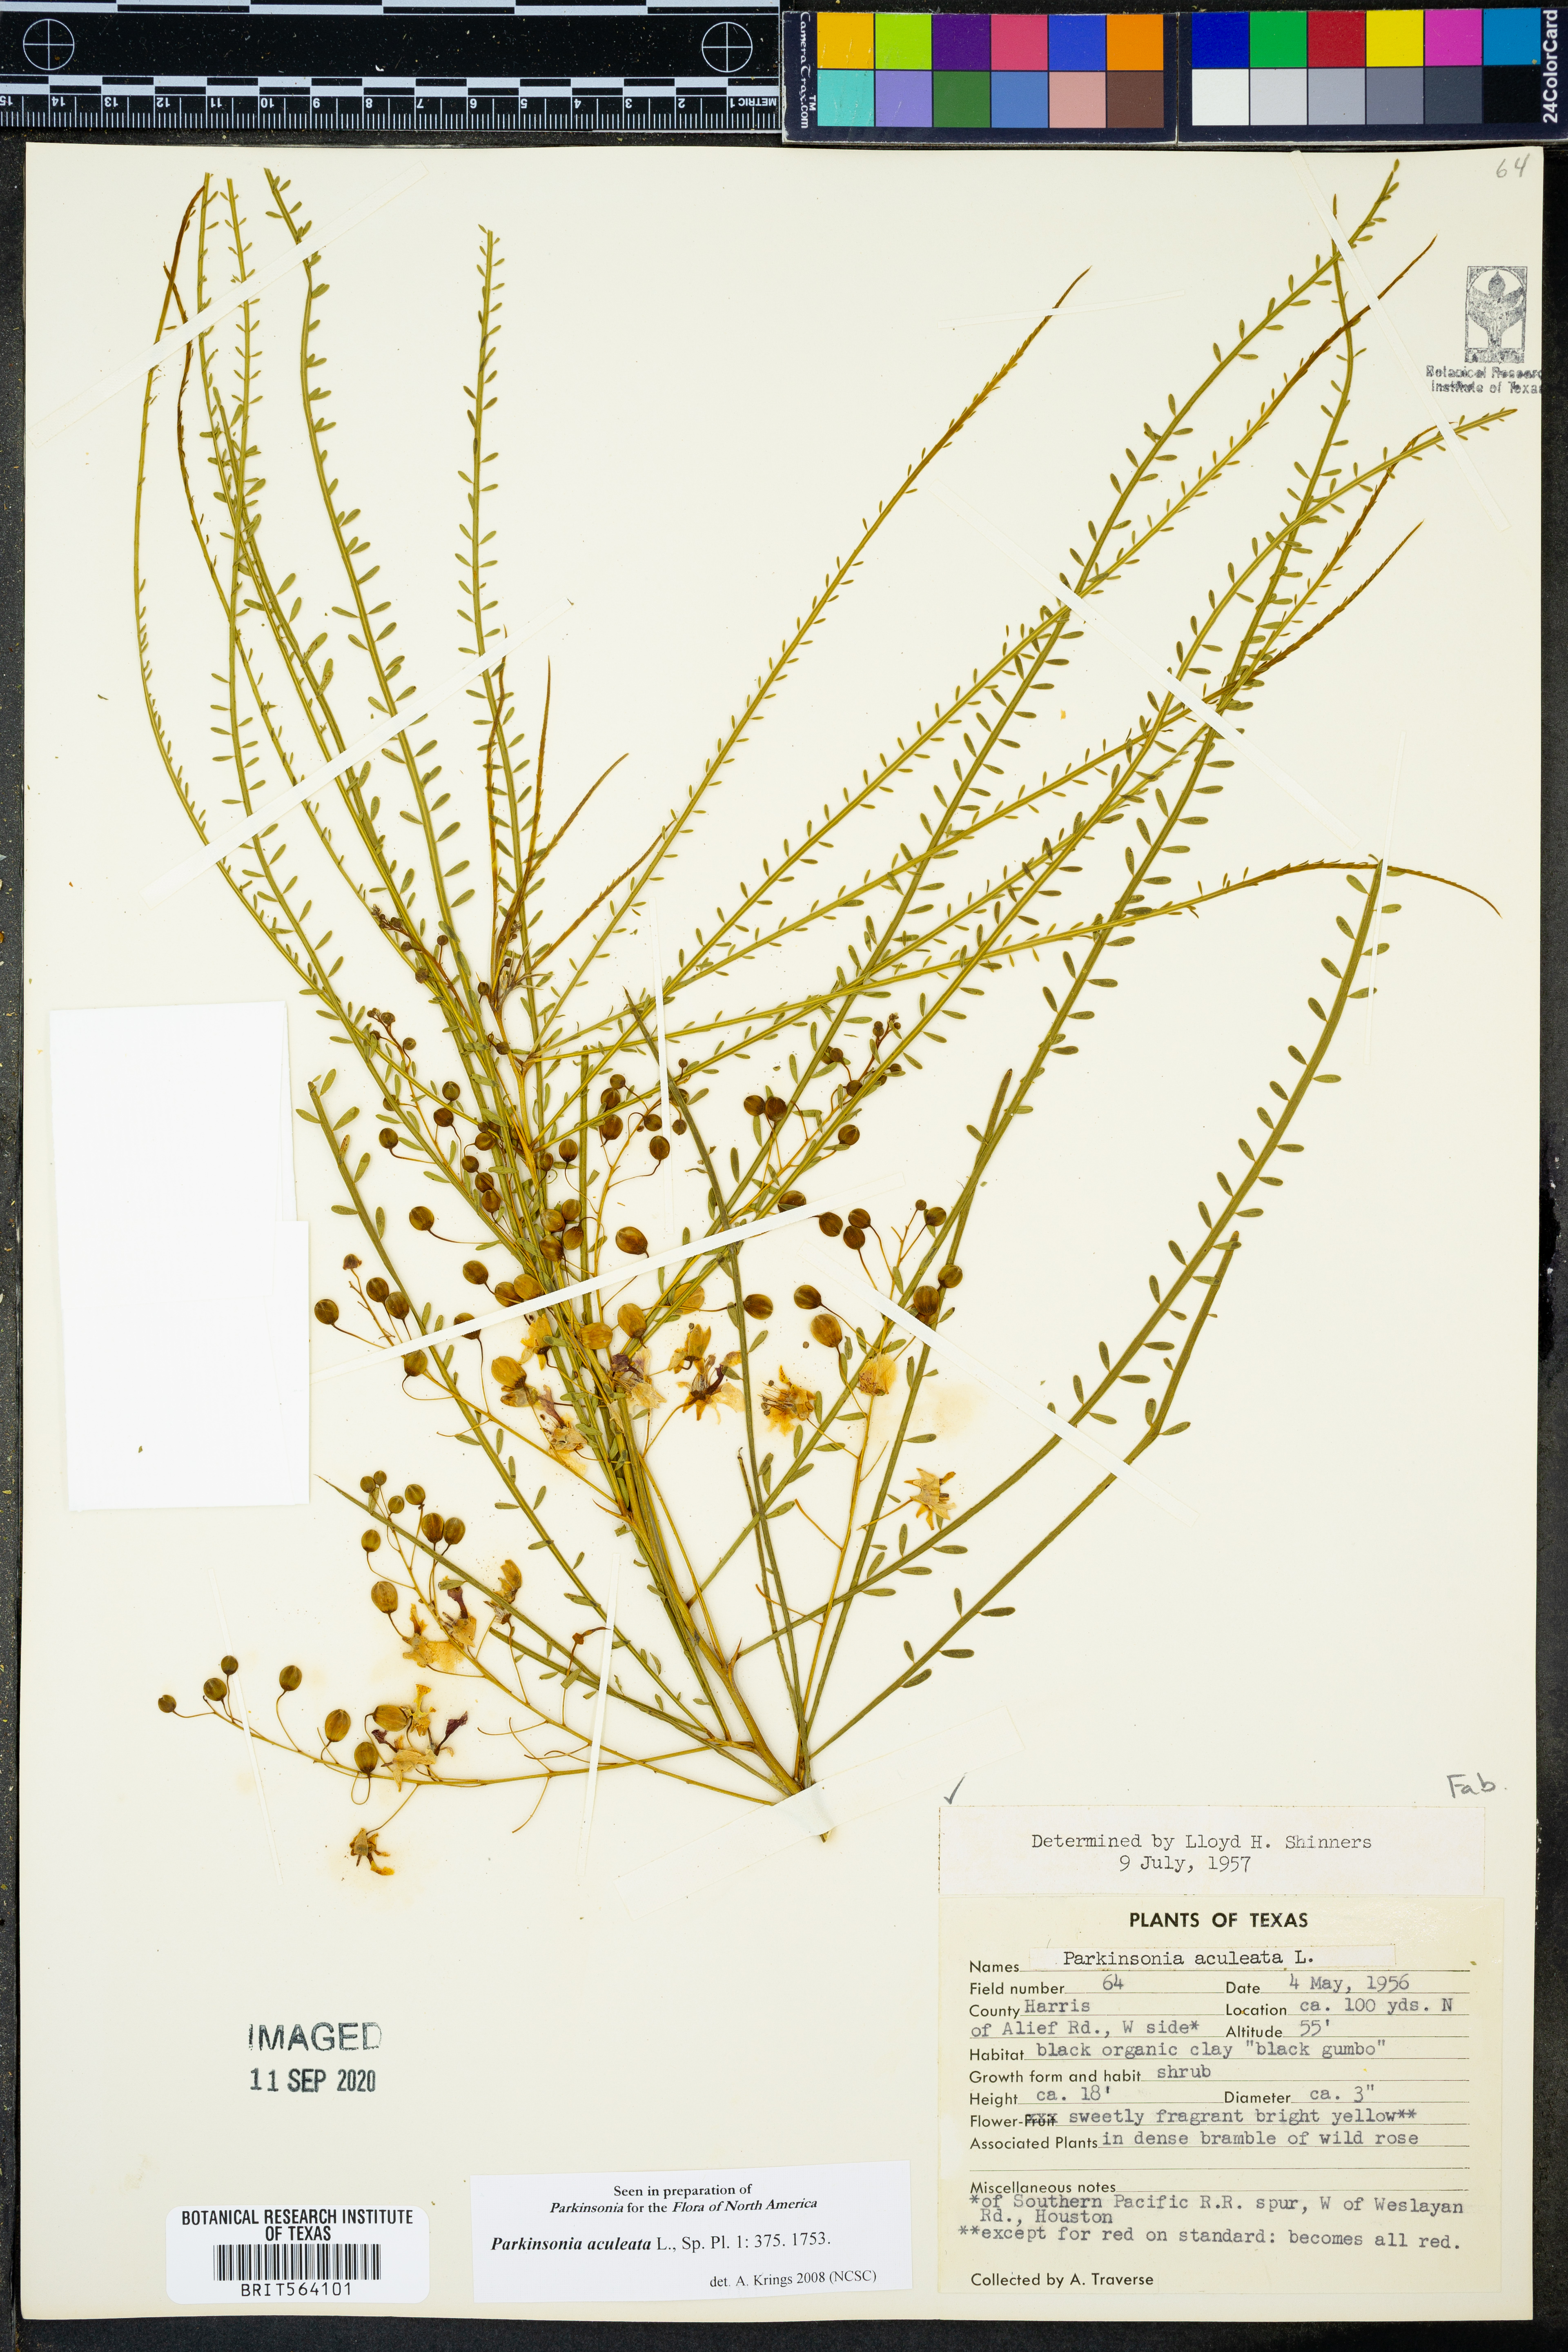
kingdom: Plantae
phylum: Tracheophyta
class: Magnoliopsida
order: Fabales
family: Fabaceae
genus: Parkinsonia
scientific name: Parkinsonia aculeata
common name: Jerusalem thorn
